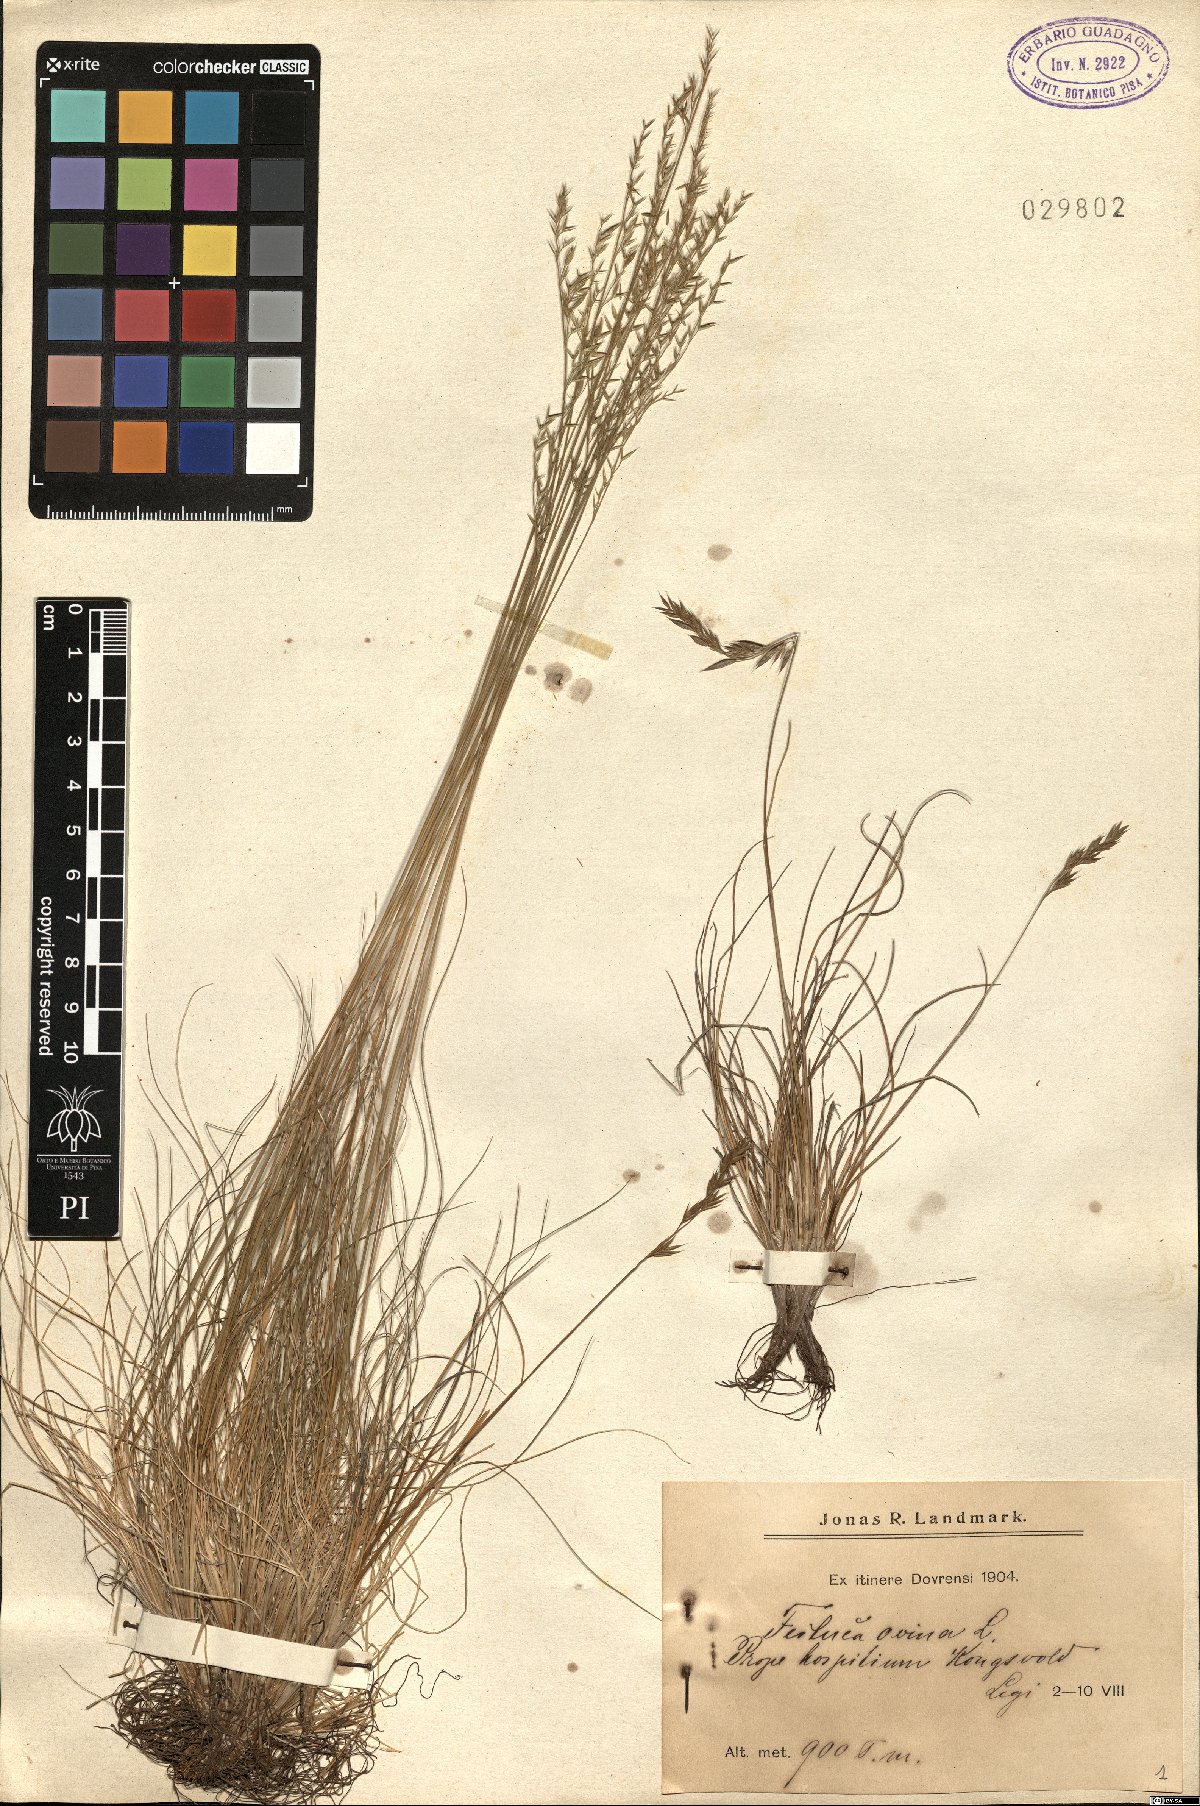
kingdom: Plantae
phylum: Tracheophyta
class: Liliopsida
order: Poales
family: Poaceae
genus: Festuca
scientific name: Festuca ovina
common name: Sheep fescue
